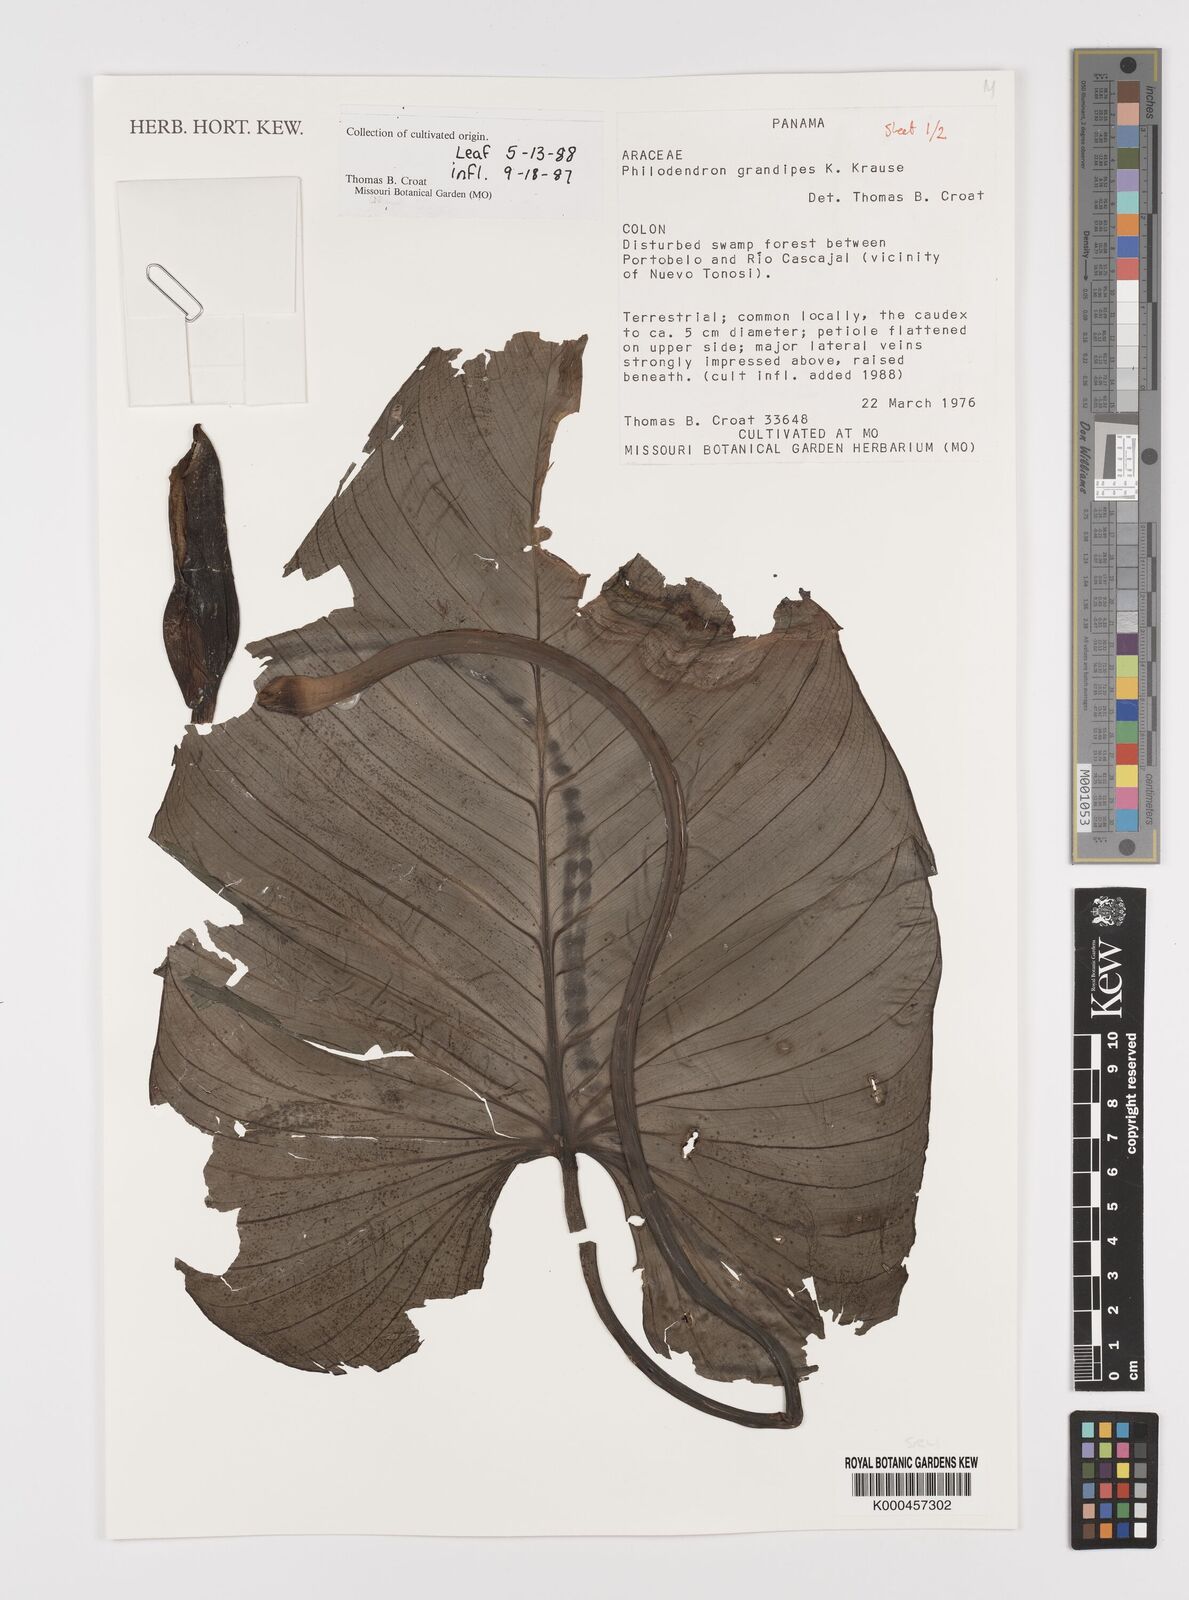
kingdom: Plantae
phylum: Tracheophyta
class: Liliopsida
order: Alismatales
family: Araceae
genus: Philodendron
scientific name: Philodendron grandipes
